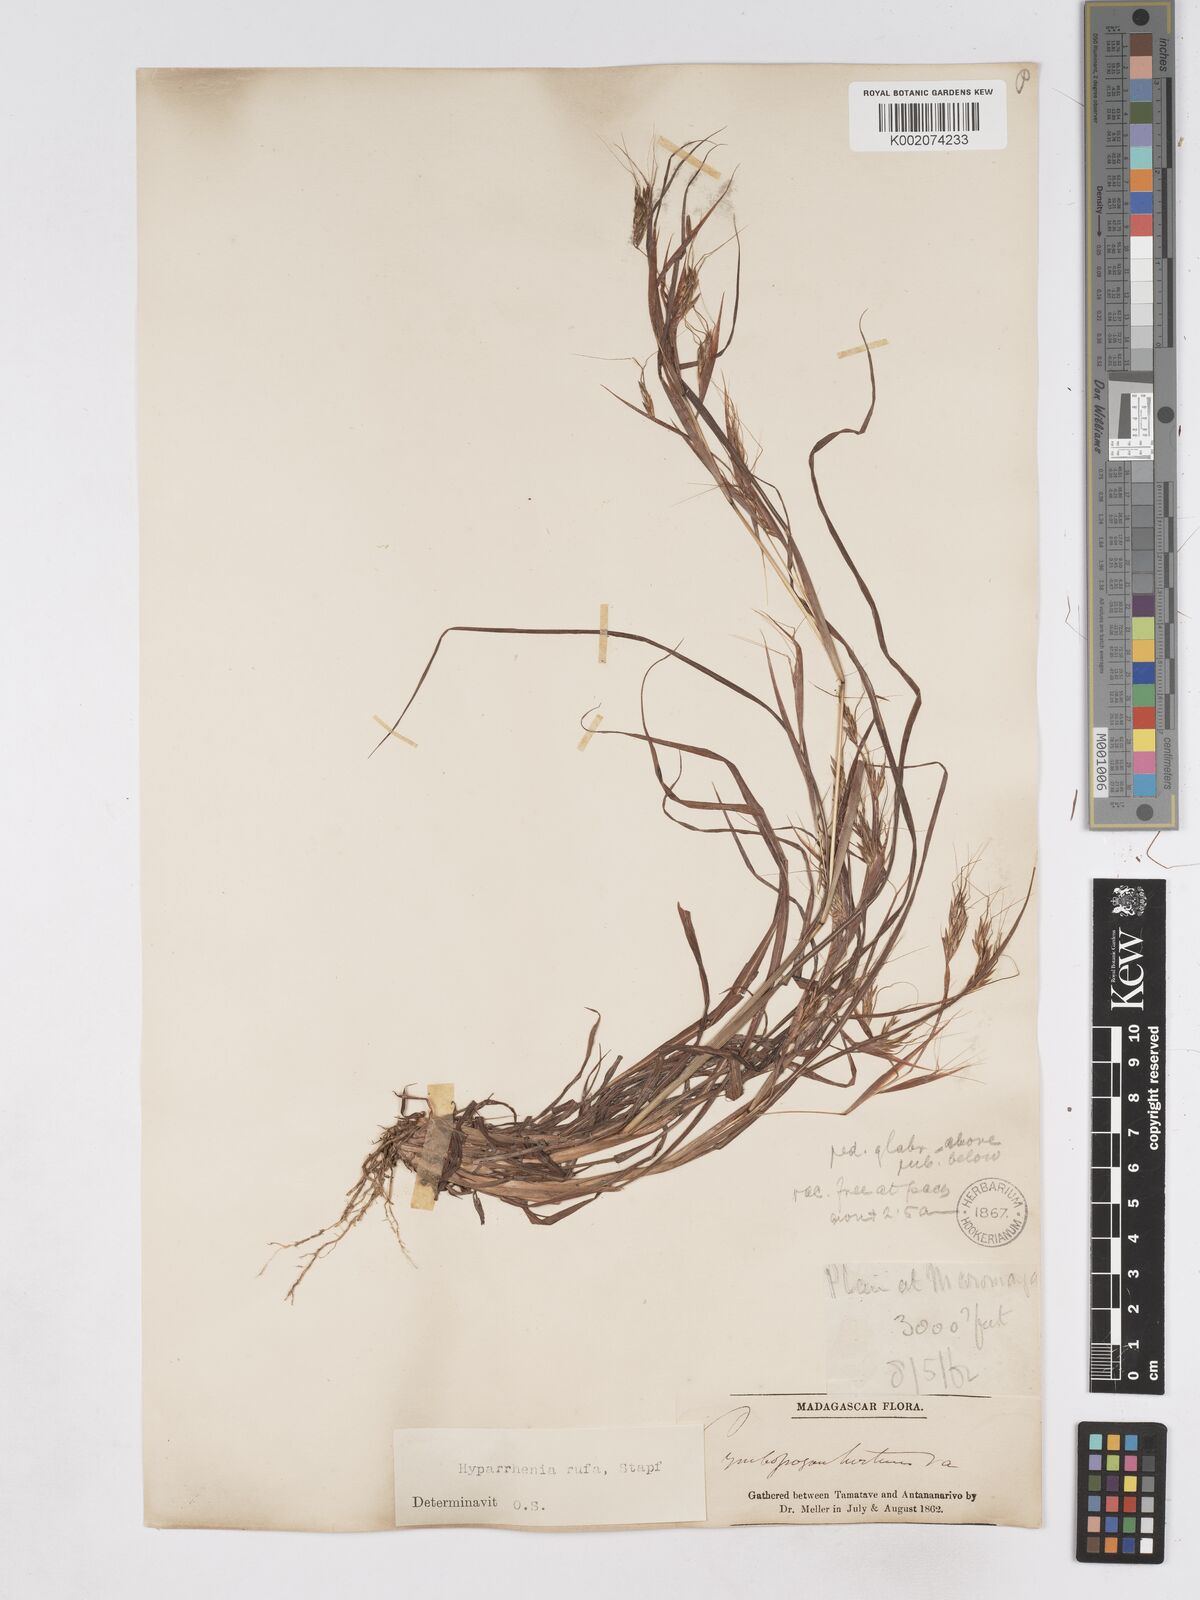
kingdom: Plantae
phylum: Tracheophyta
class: Liliopsida
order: Poales
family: Poaceae
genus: Hyparrhenia
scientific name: Hyparrhenia rufa
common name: Jaraguagrass
